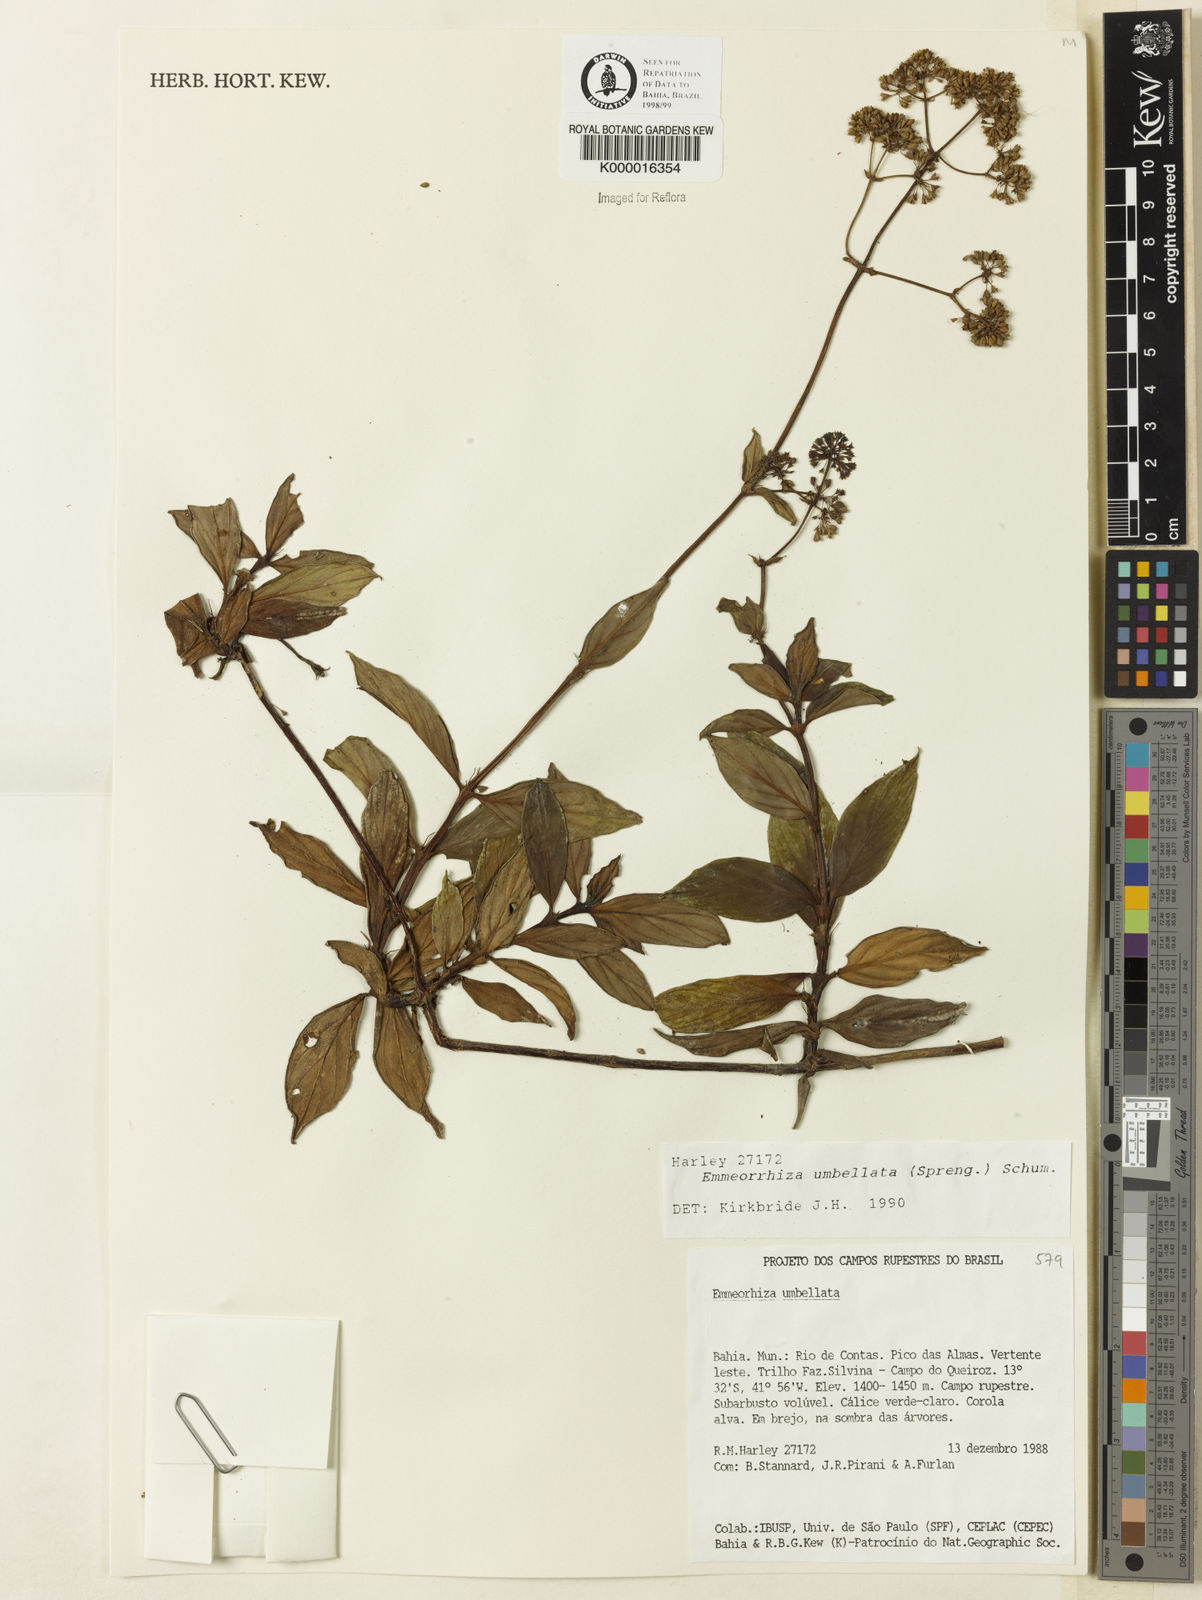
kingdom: Plantae
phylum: Tracheophyta
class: Magnoliopsida
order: Gentianales
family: Rubiaceae
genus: Emmeorhiza
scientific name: Emmeorhiza umbellata
